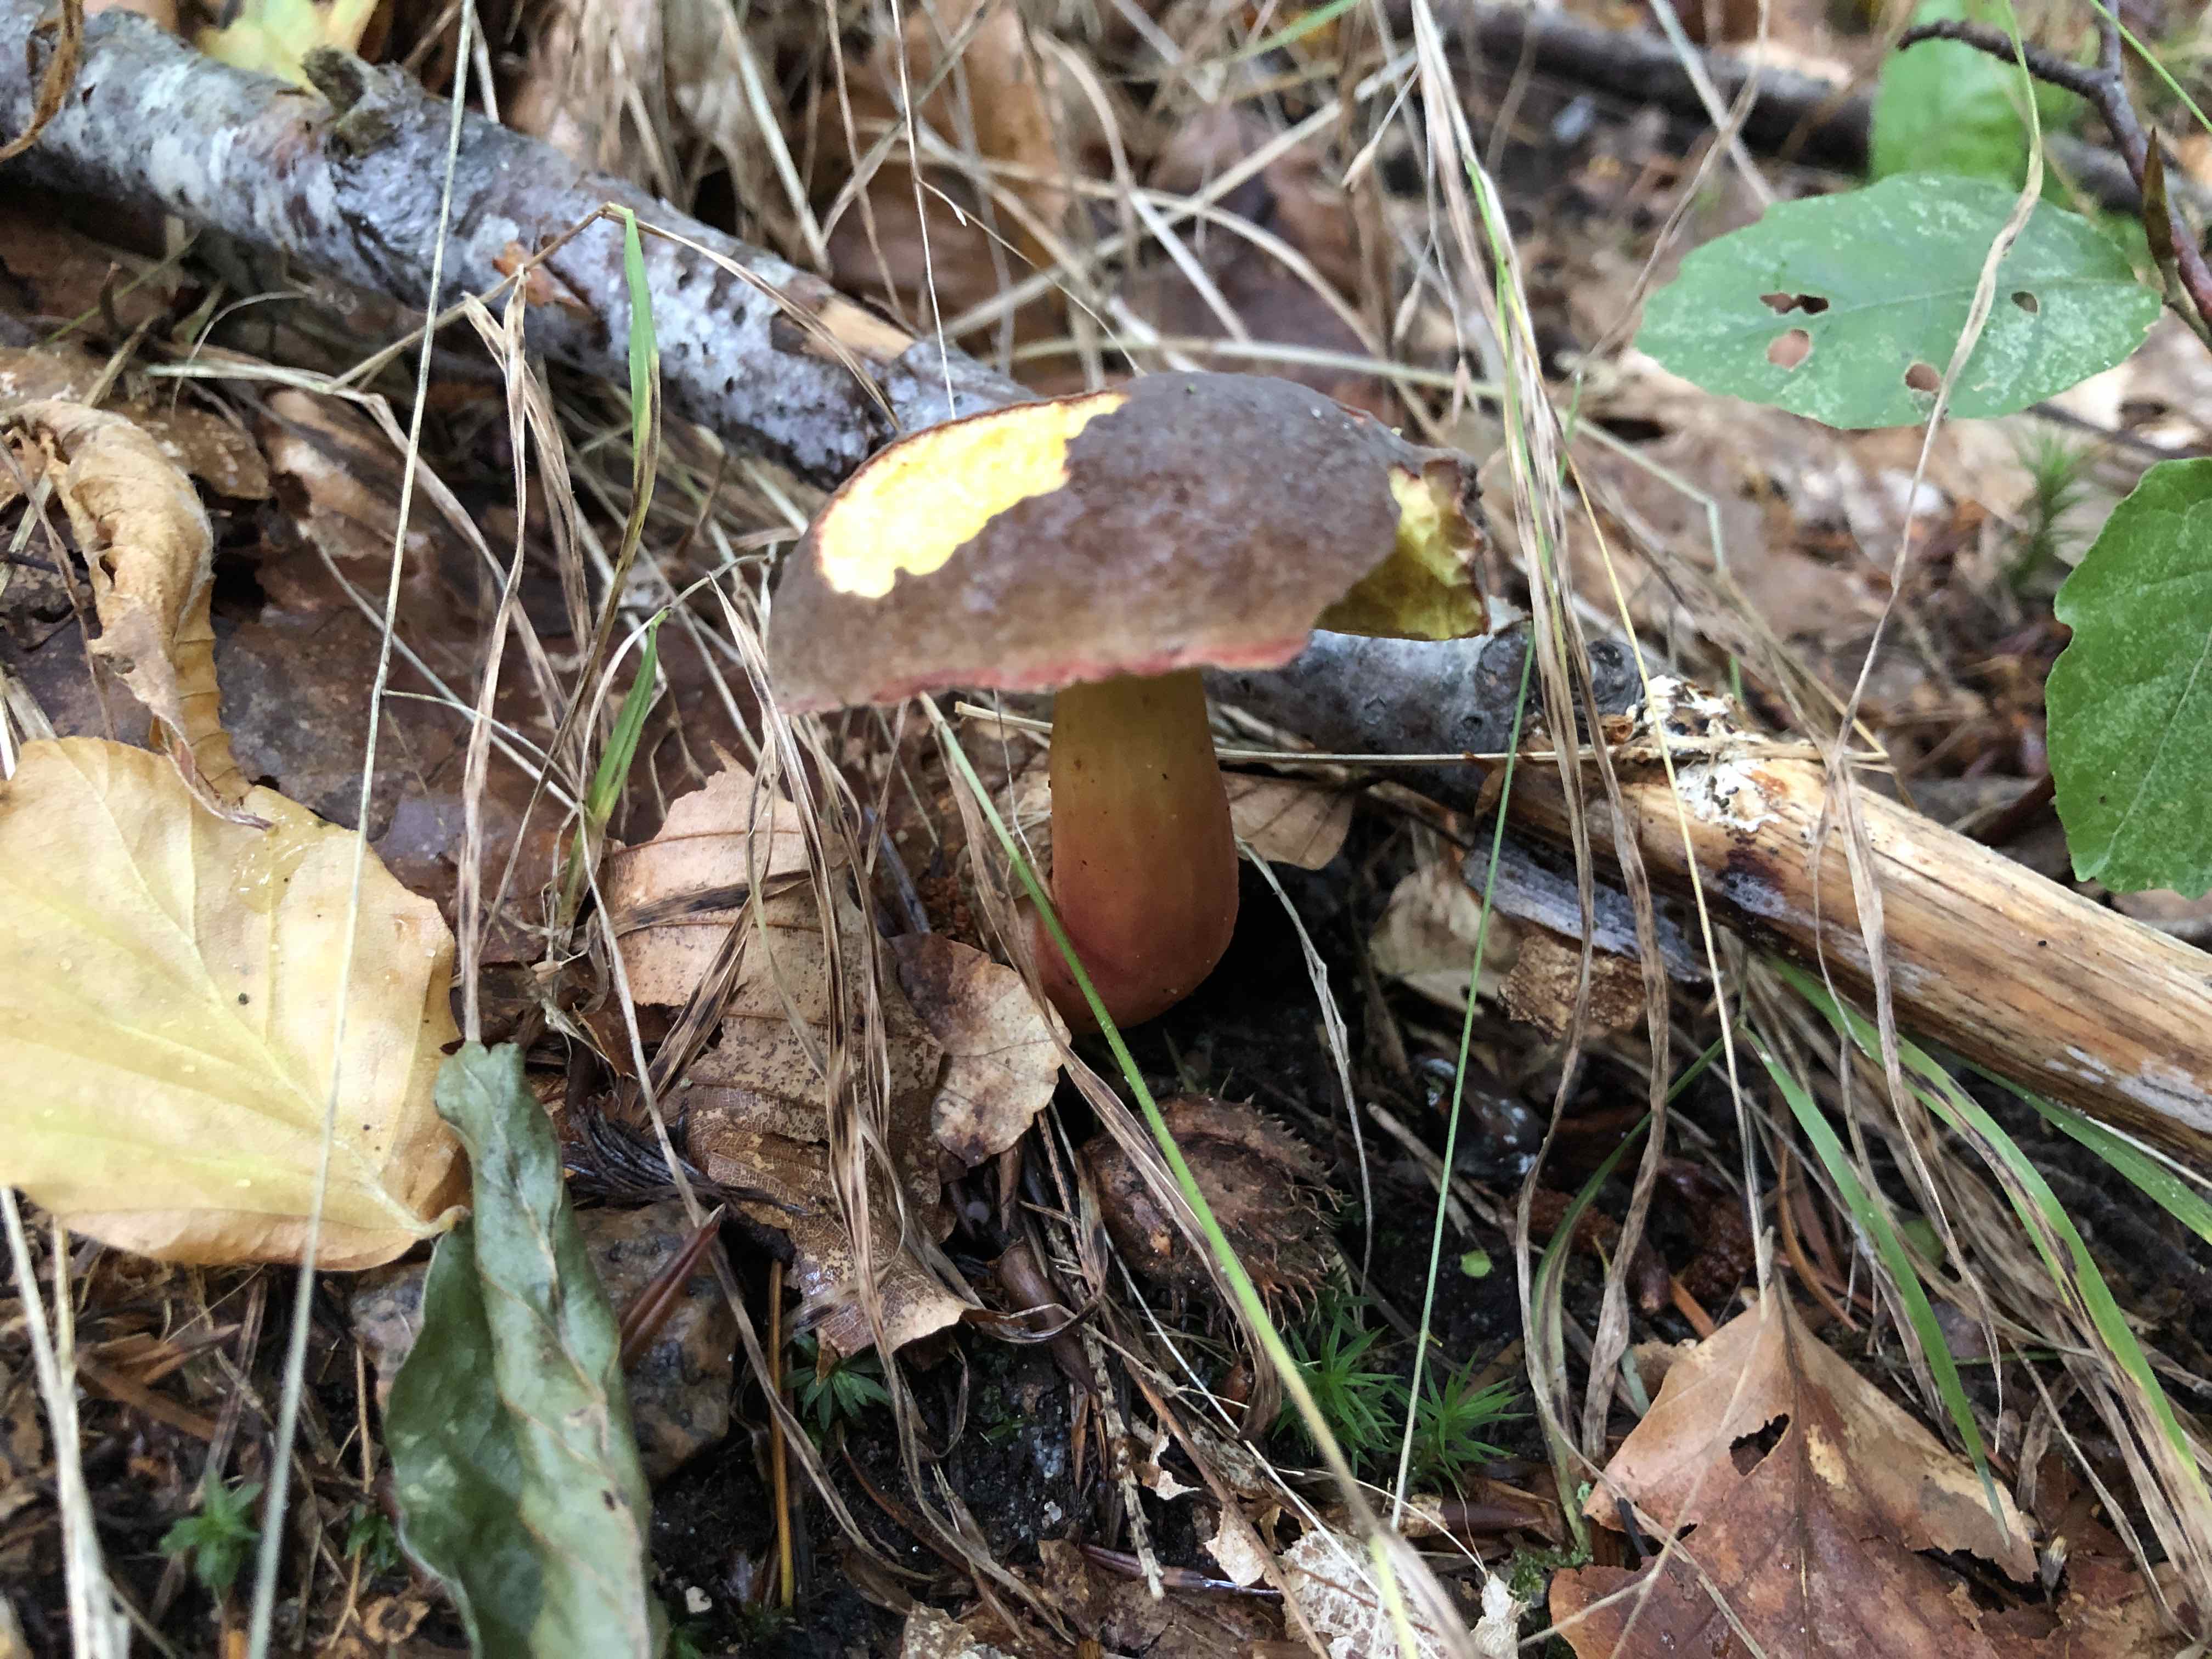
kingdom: Fungi
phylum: Basidiomycota
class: Agaricomycetes
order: Boletales
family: Boletaceae
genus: Xerocomellus
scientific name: Xerocomellus pruinatus
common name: dugget rørhat
